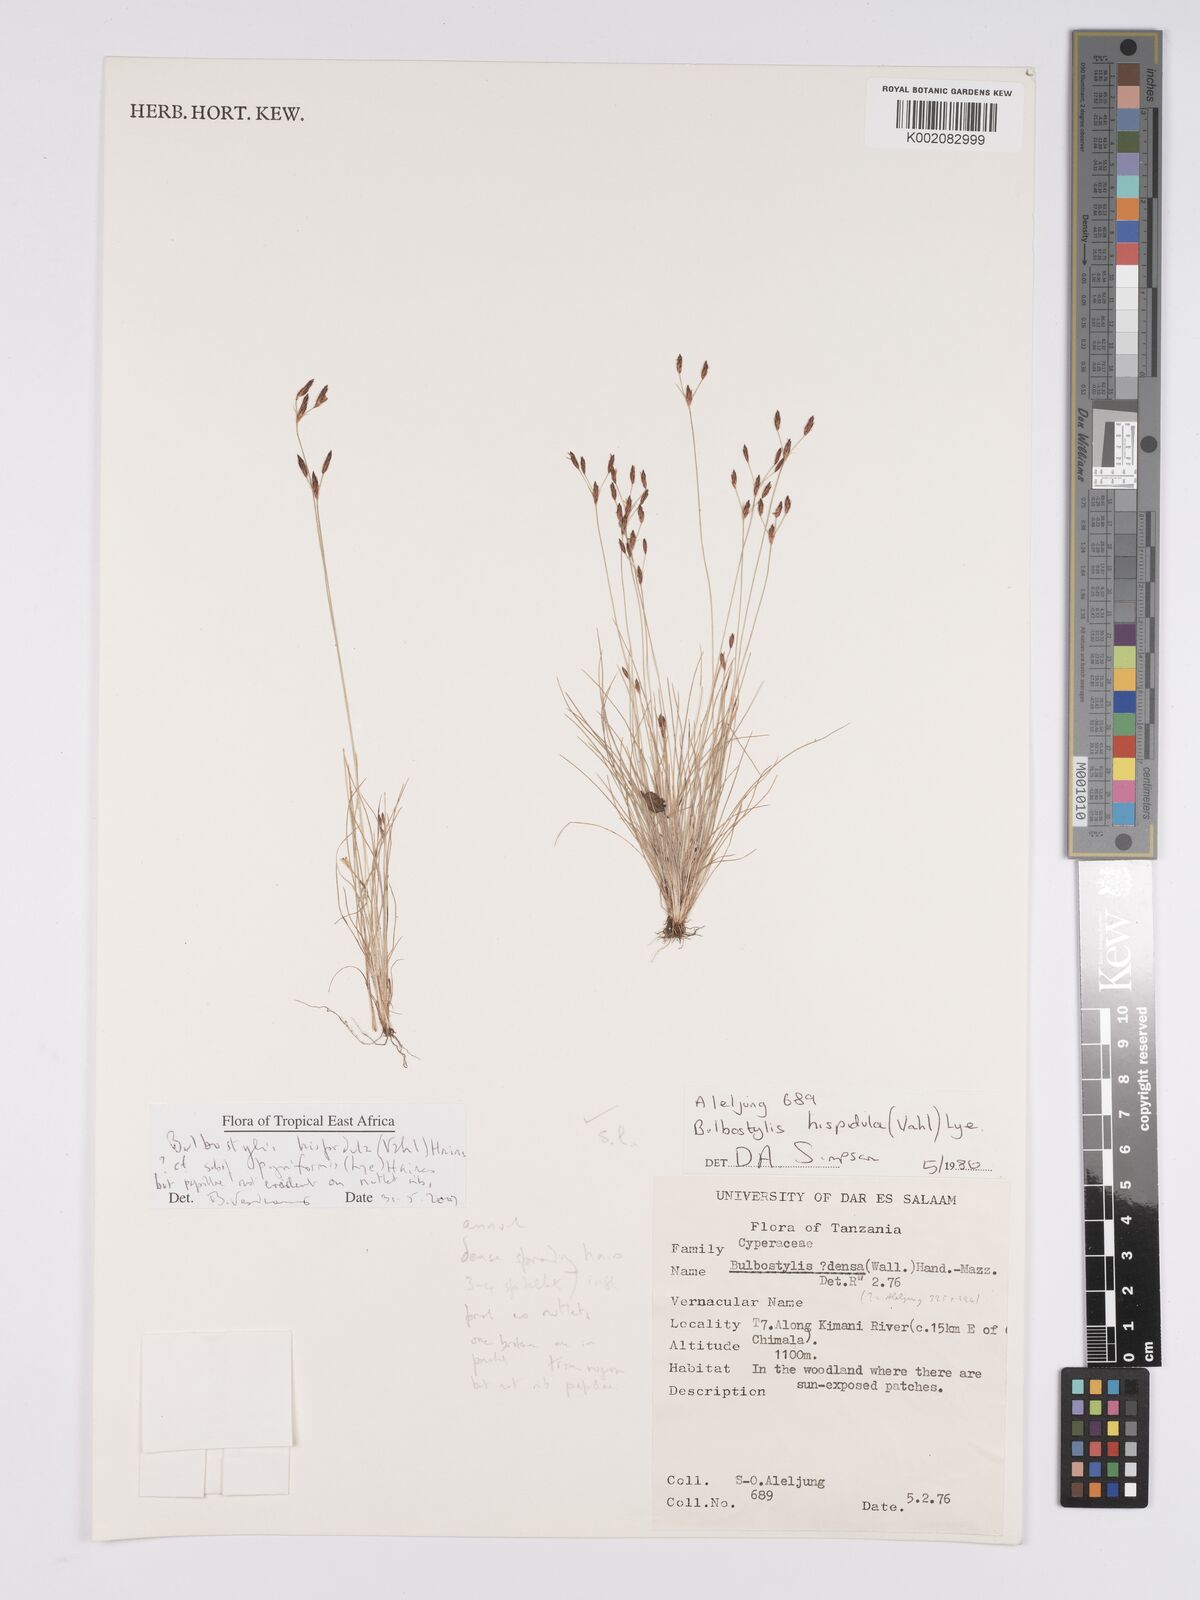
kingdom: Plantae
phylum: Tracheophyta
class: Liliopsida
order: Poales
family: Cyperaceae
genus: Bulbostylis
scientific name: Bulbostylis hispidula
